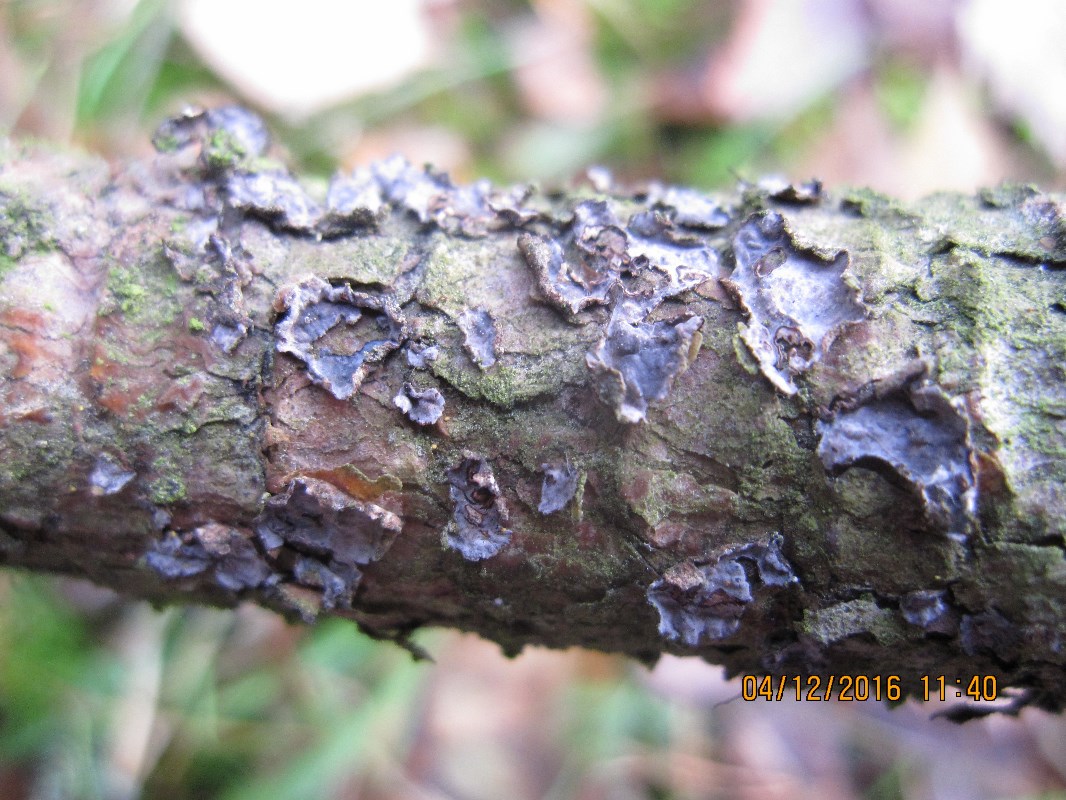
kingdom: Fungi
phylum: Basidiomycota
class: Agaricomycetes
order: Russulales
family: Peniophoraceae
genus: Peniophora
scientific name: Peniophora pini
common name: fyrre-voksskind
